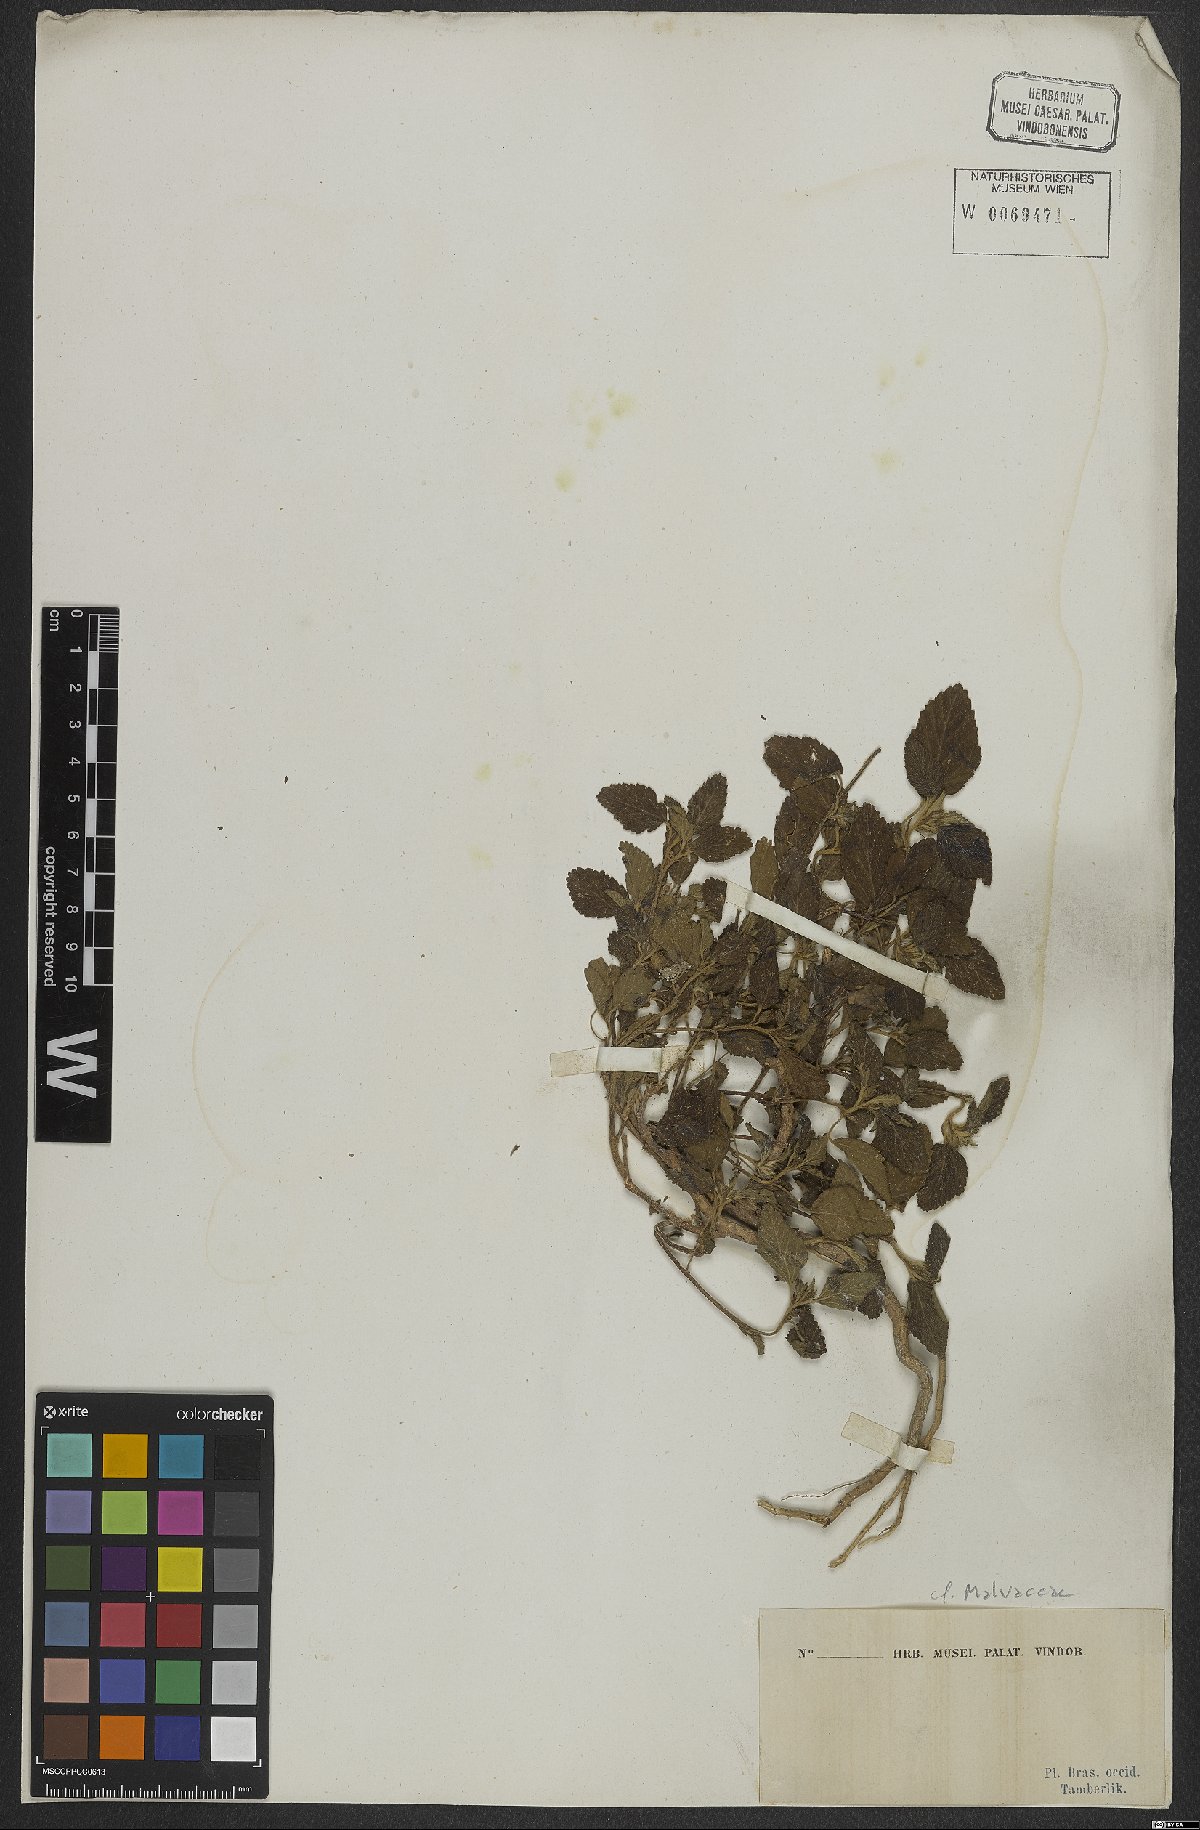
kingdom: Plantae
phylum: Tracheophyta
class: Magnoliopsida
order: Malvales
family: Malvaceae
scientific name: Malvaceae
